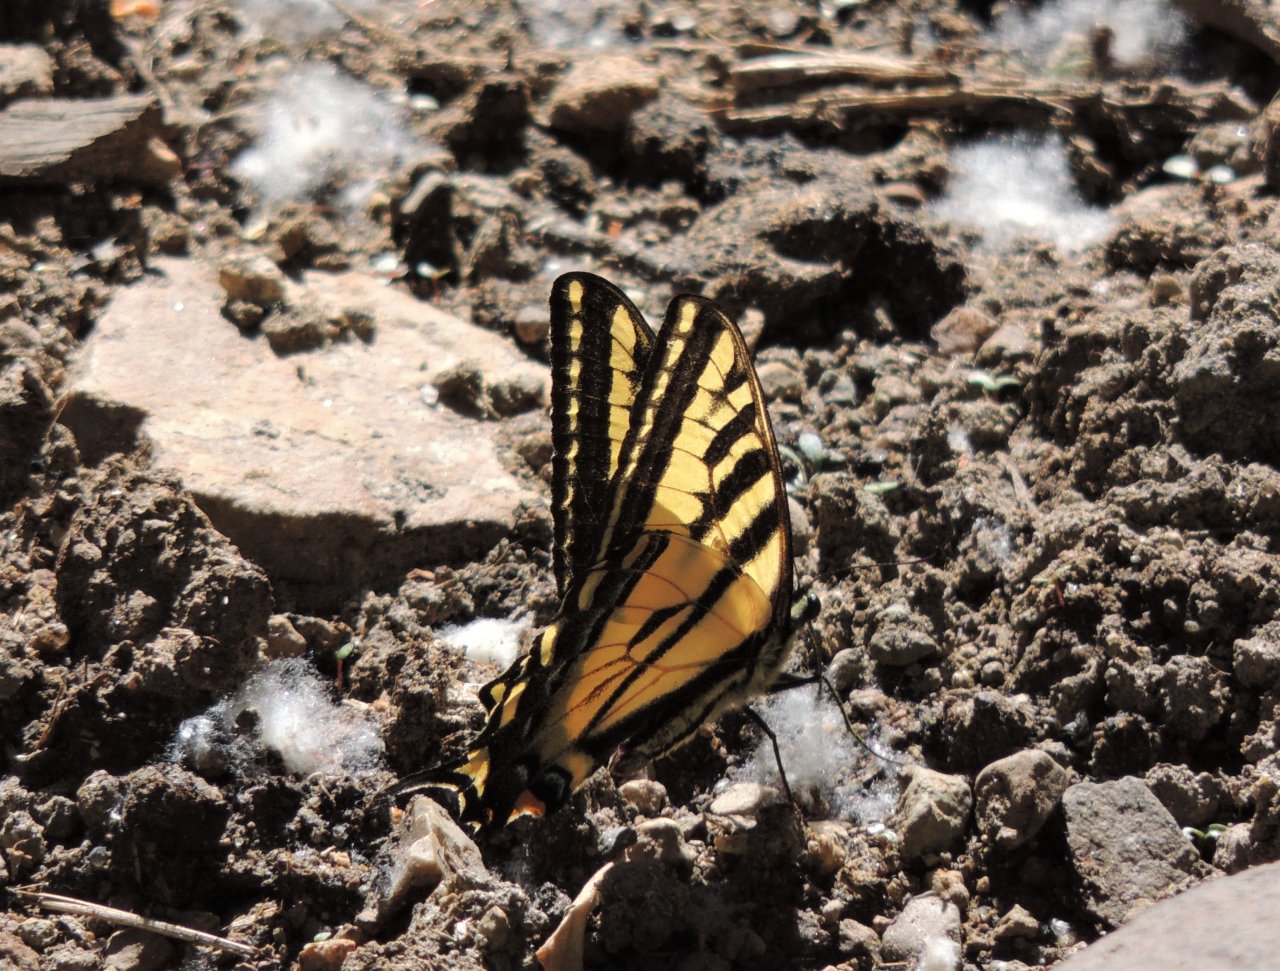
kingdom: Animalia
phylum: Arthropoda
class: Insecta
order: Lepidoptera
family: Papilionidae
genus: Pterourus
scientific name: Pterourus rutulus
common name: Western Tiger Swallowtail
